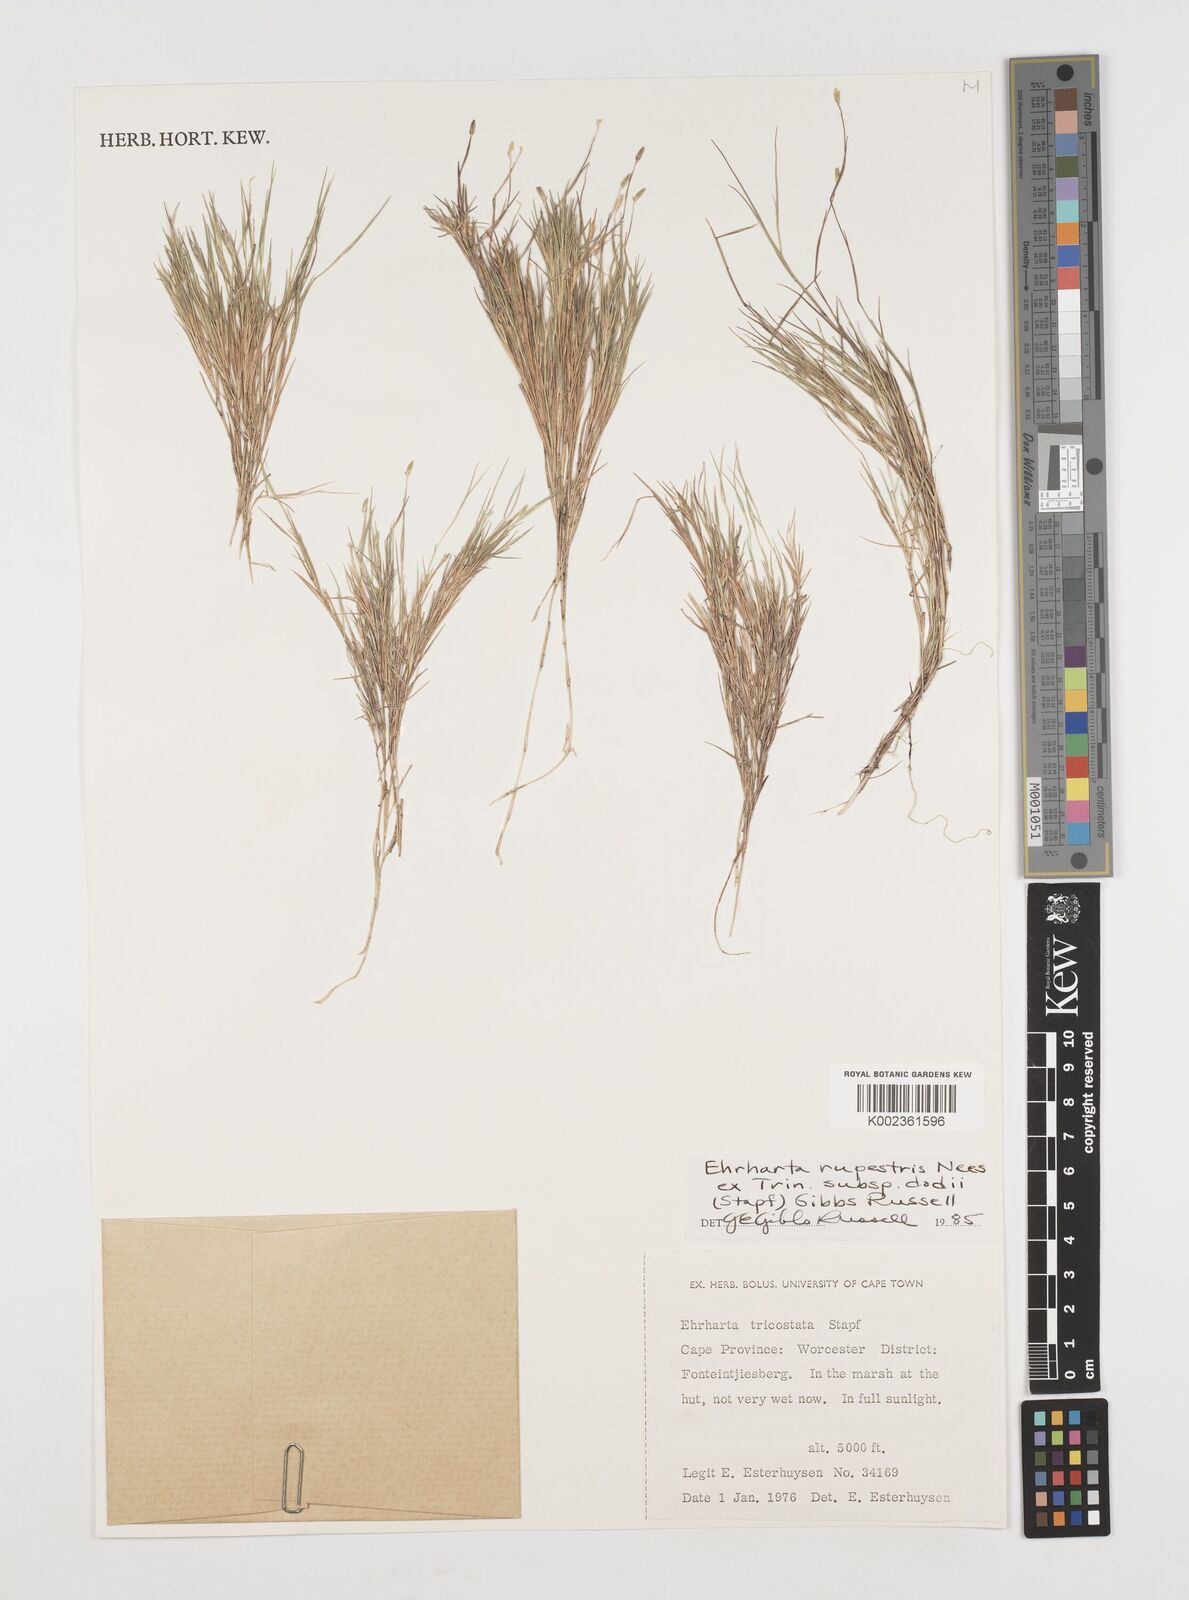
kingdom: Plantae
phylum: Tracheophyta
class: Liliopsida
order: Poales
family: Poaceae
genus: Ehrharta
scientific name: Ehrharta rupestris
